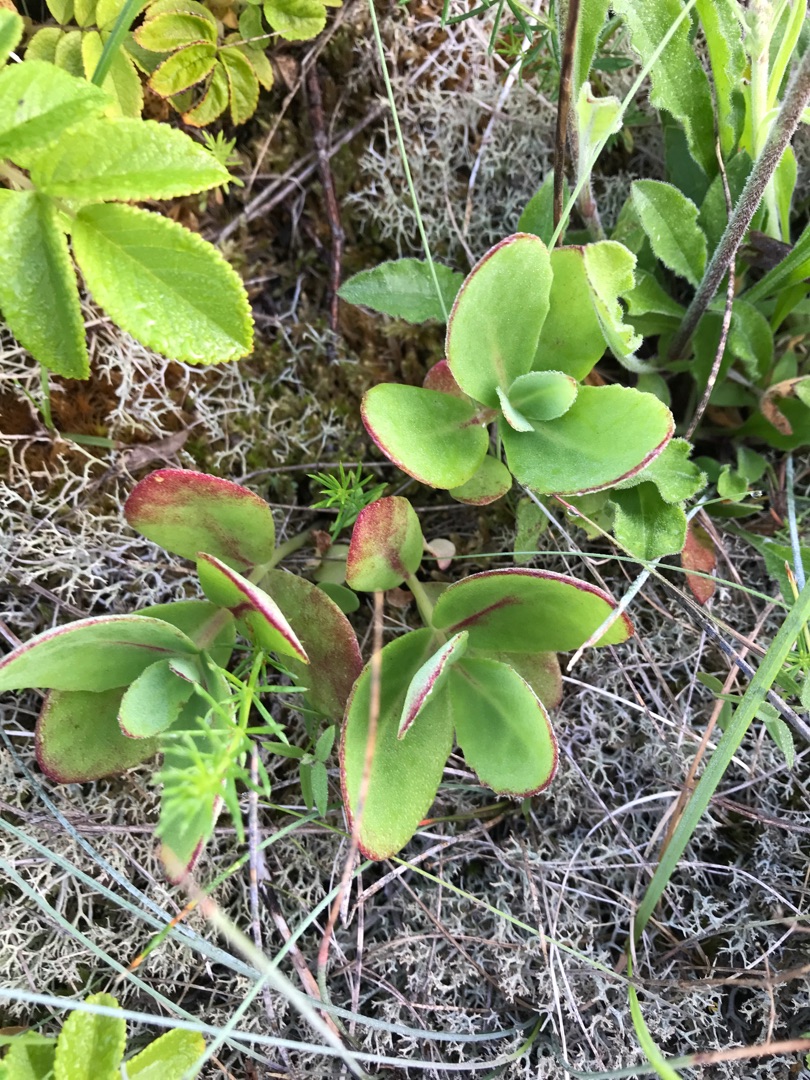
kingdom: Plantae
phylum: Tracheophyta
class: Magnoliopsida
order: Saxifragales
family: Crassulaceae
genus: Hylotelephium
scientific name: Hylotelephium maximum
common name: Almindelig sankthansurt
